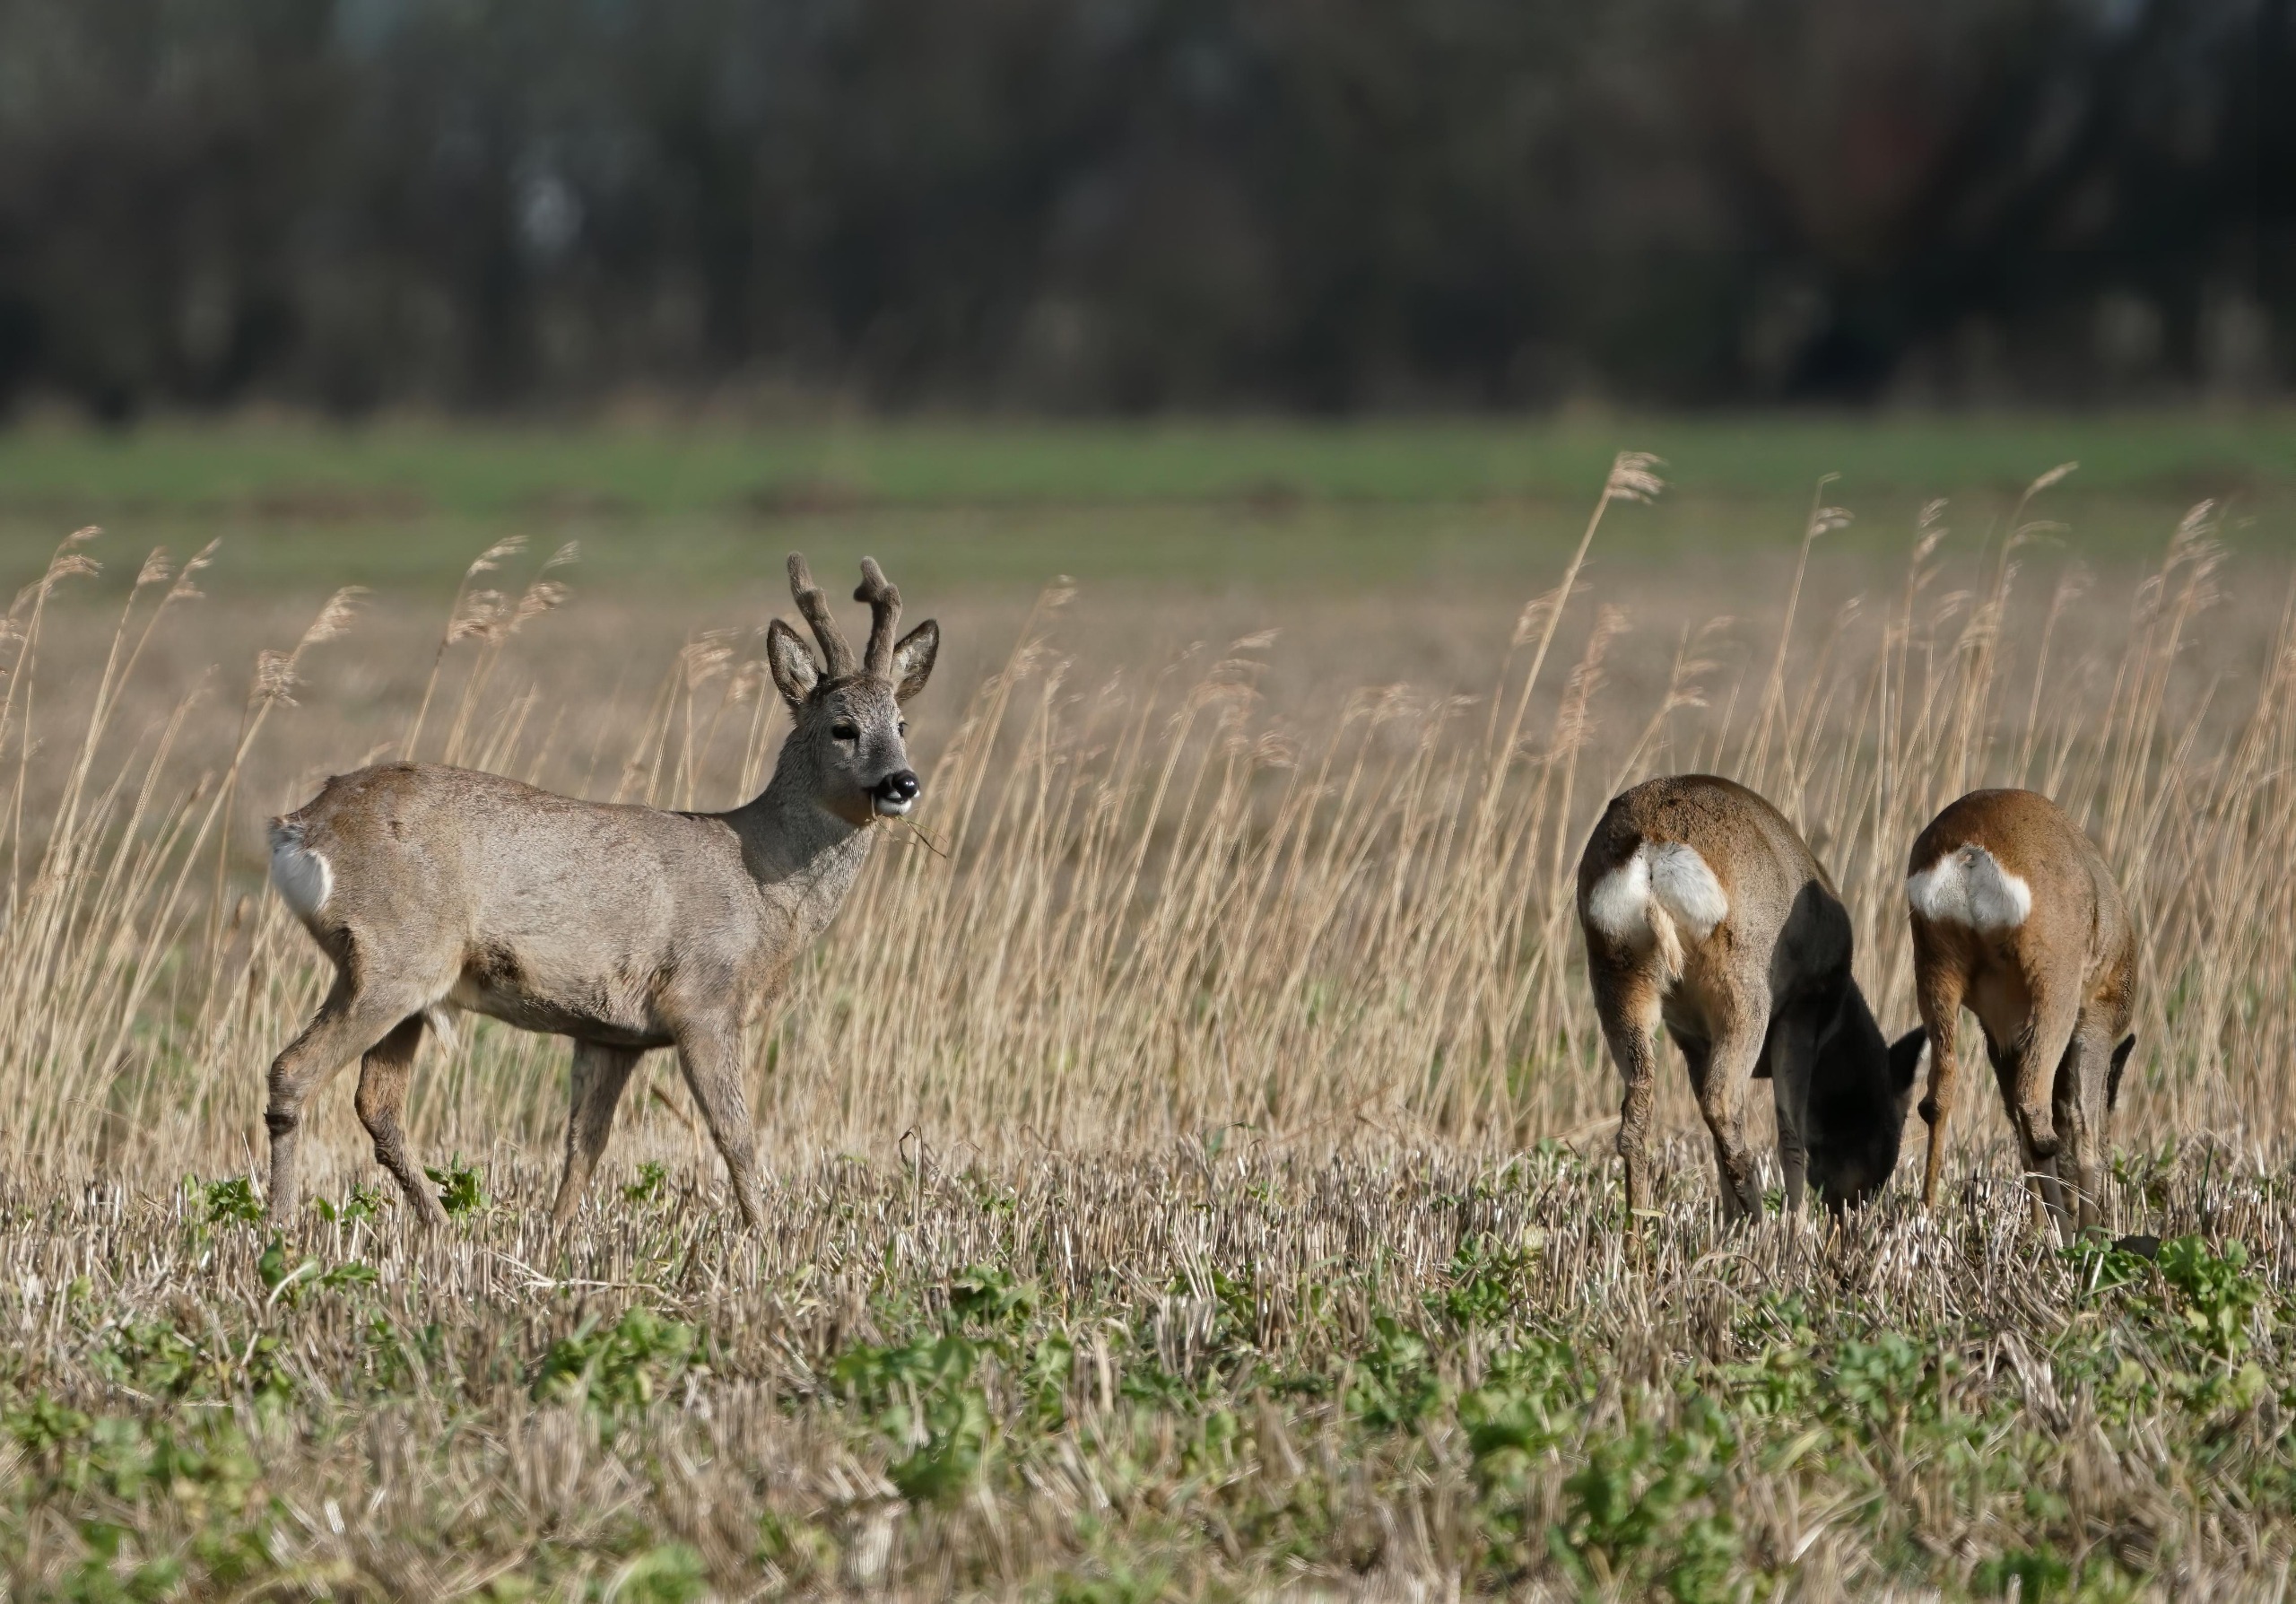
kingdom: Animalia
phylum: Chordata
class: Mammalia
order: Artiodactyla
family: Cervidae
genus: Capreolus
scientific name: Capreolus capreolus
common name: Rådyr
